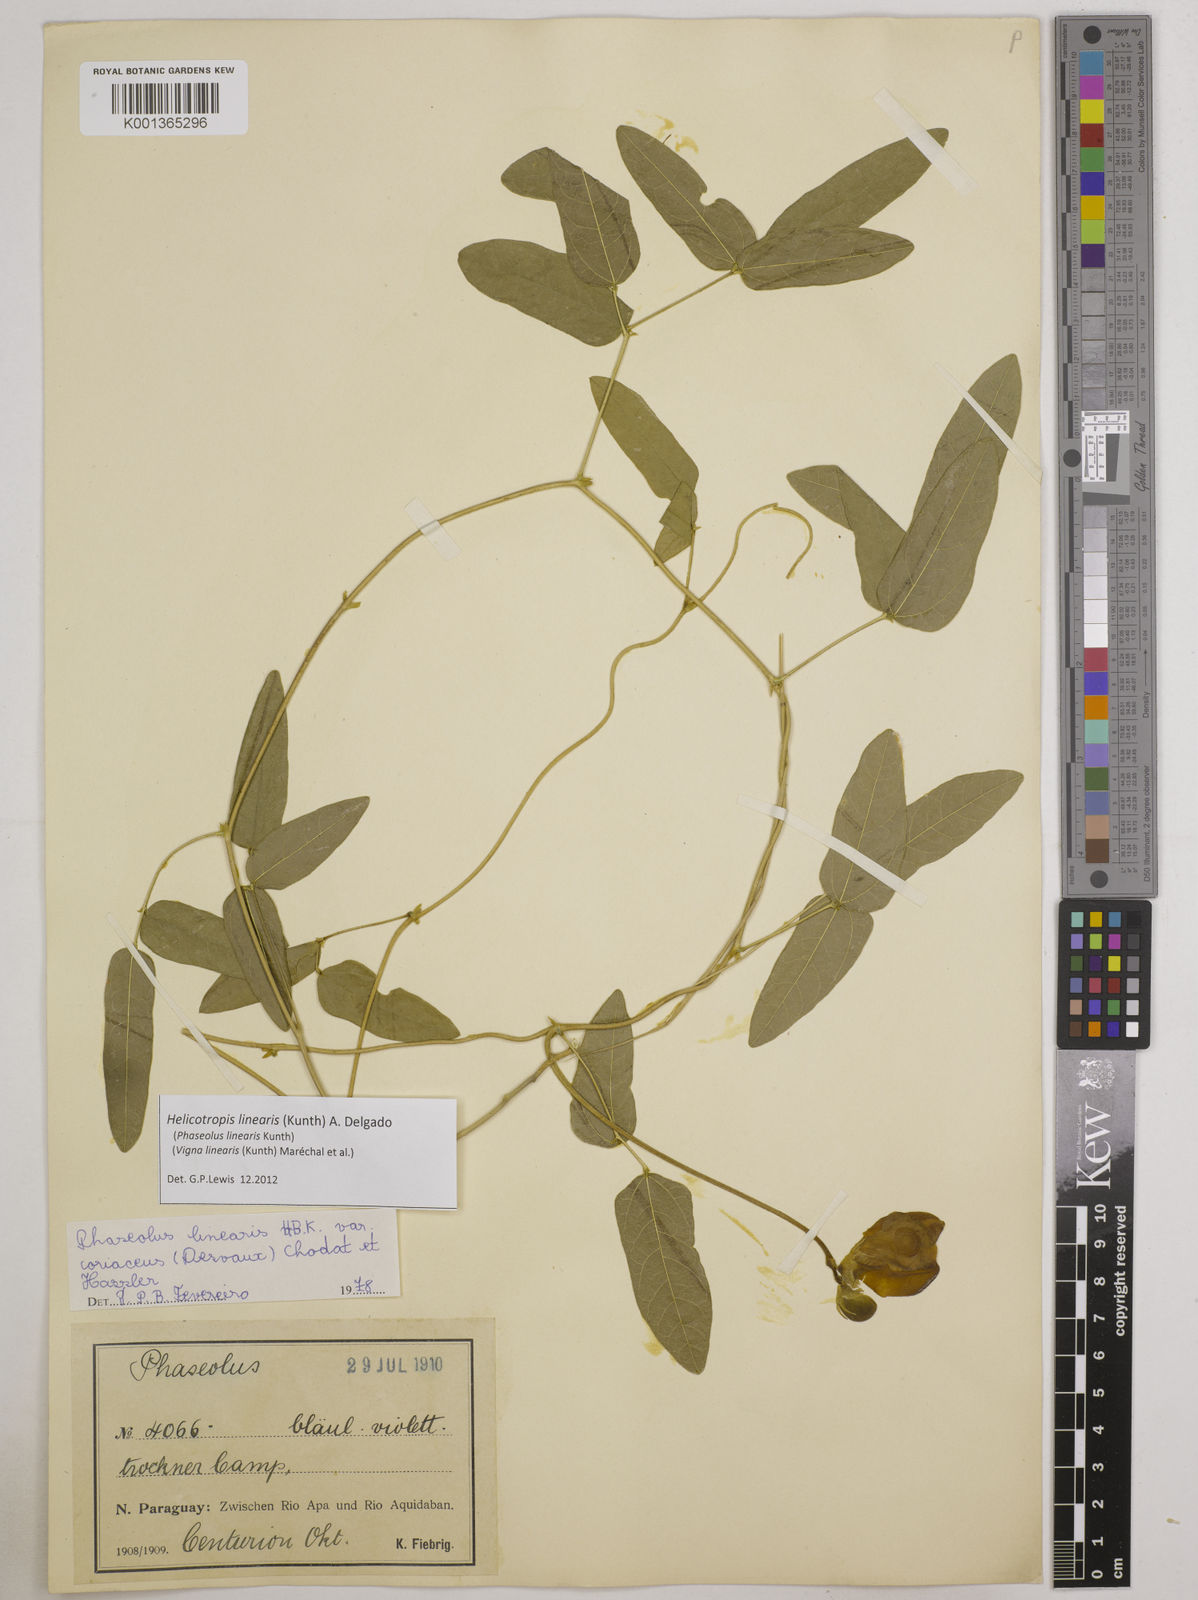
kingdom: Plantae
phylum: Tracheophyta
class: Magnoliopsida
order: Fabales
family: Fabaceae
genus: Helicotropis
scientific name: Helicotropis linearis
